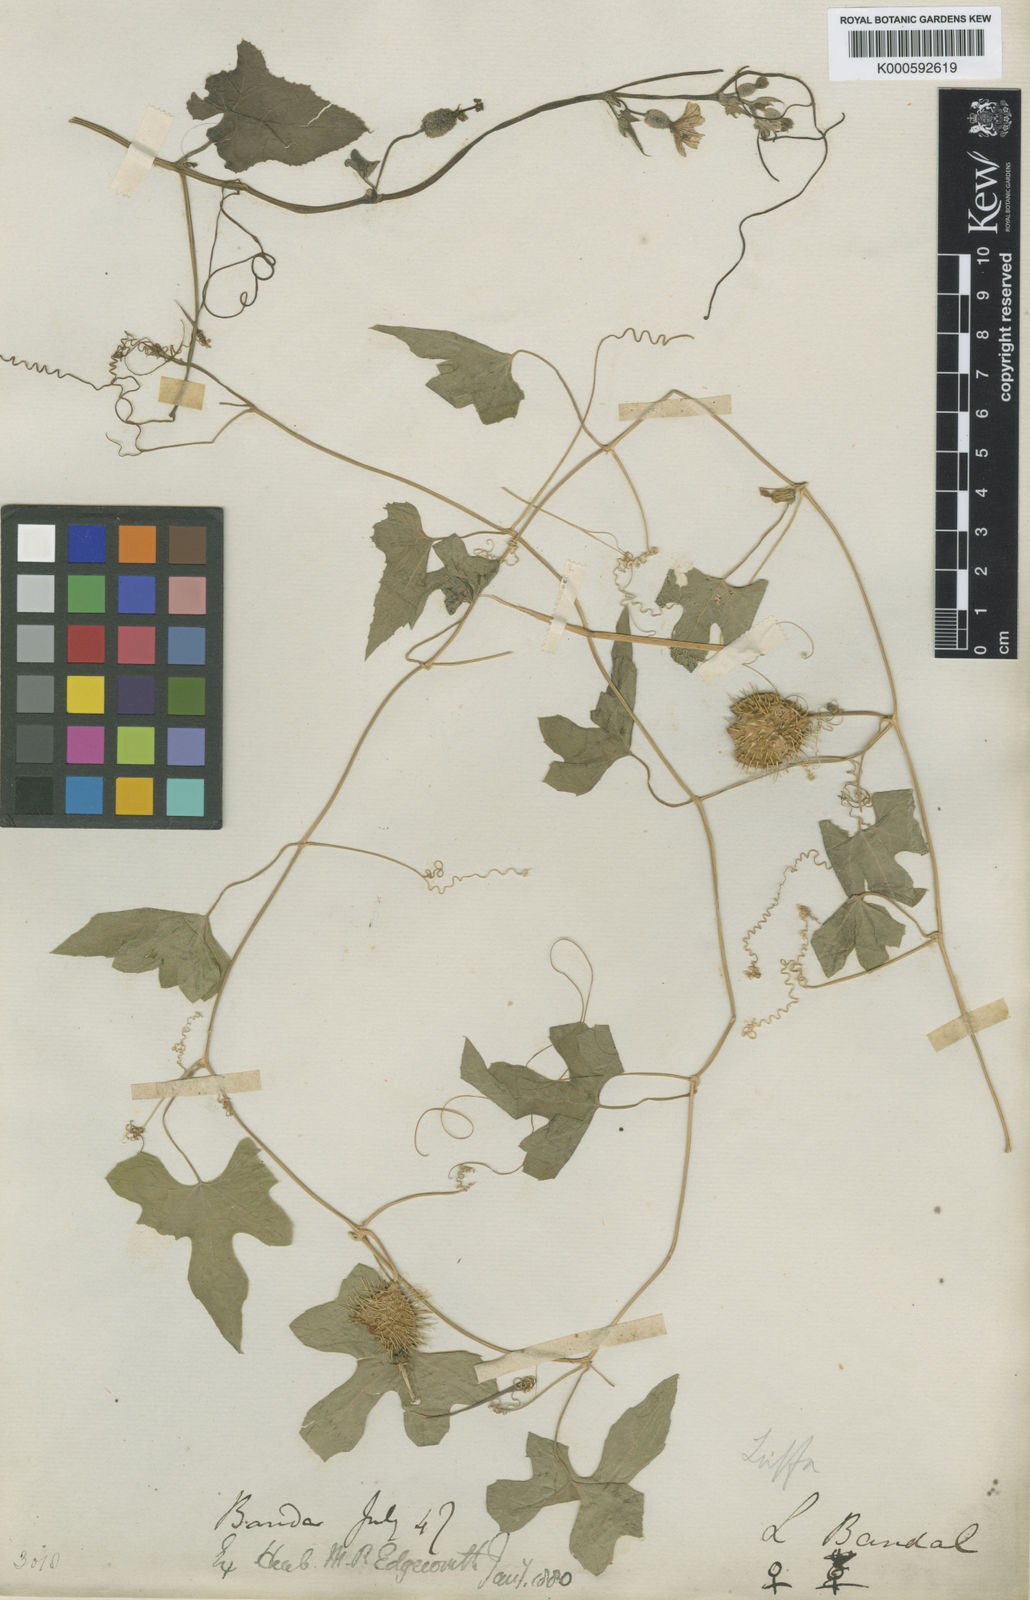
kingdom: Plantae
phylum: Tracheophyta
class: Magnoliopsida
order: Cucurbitales
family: Cucurbitaceae
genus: Luffa
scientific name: Luffa echinata
